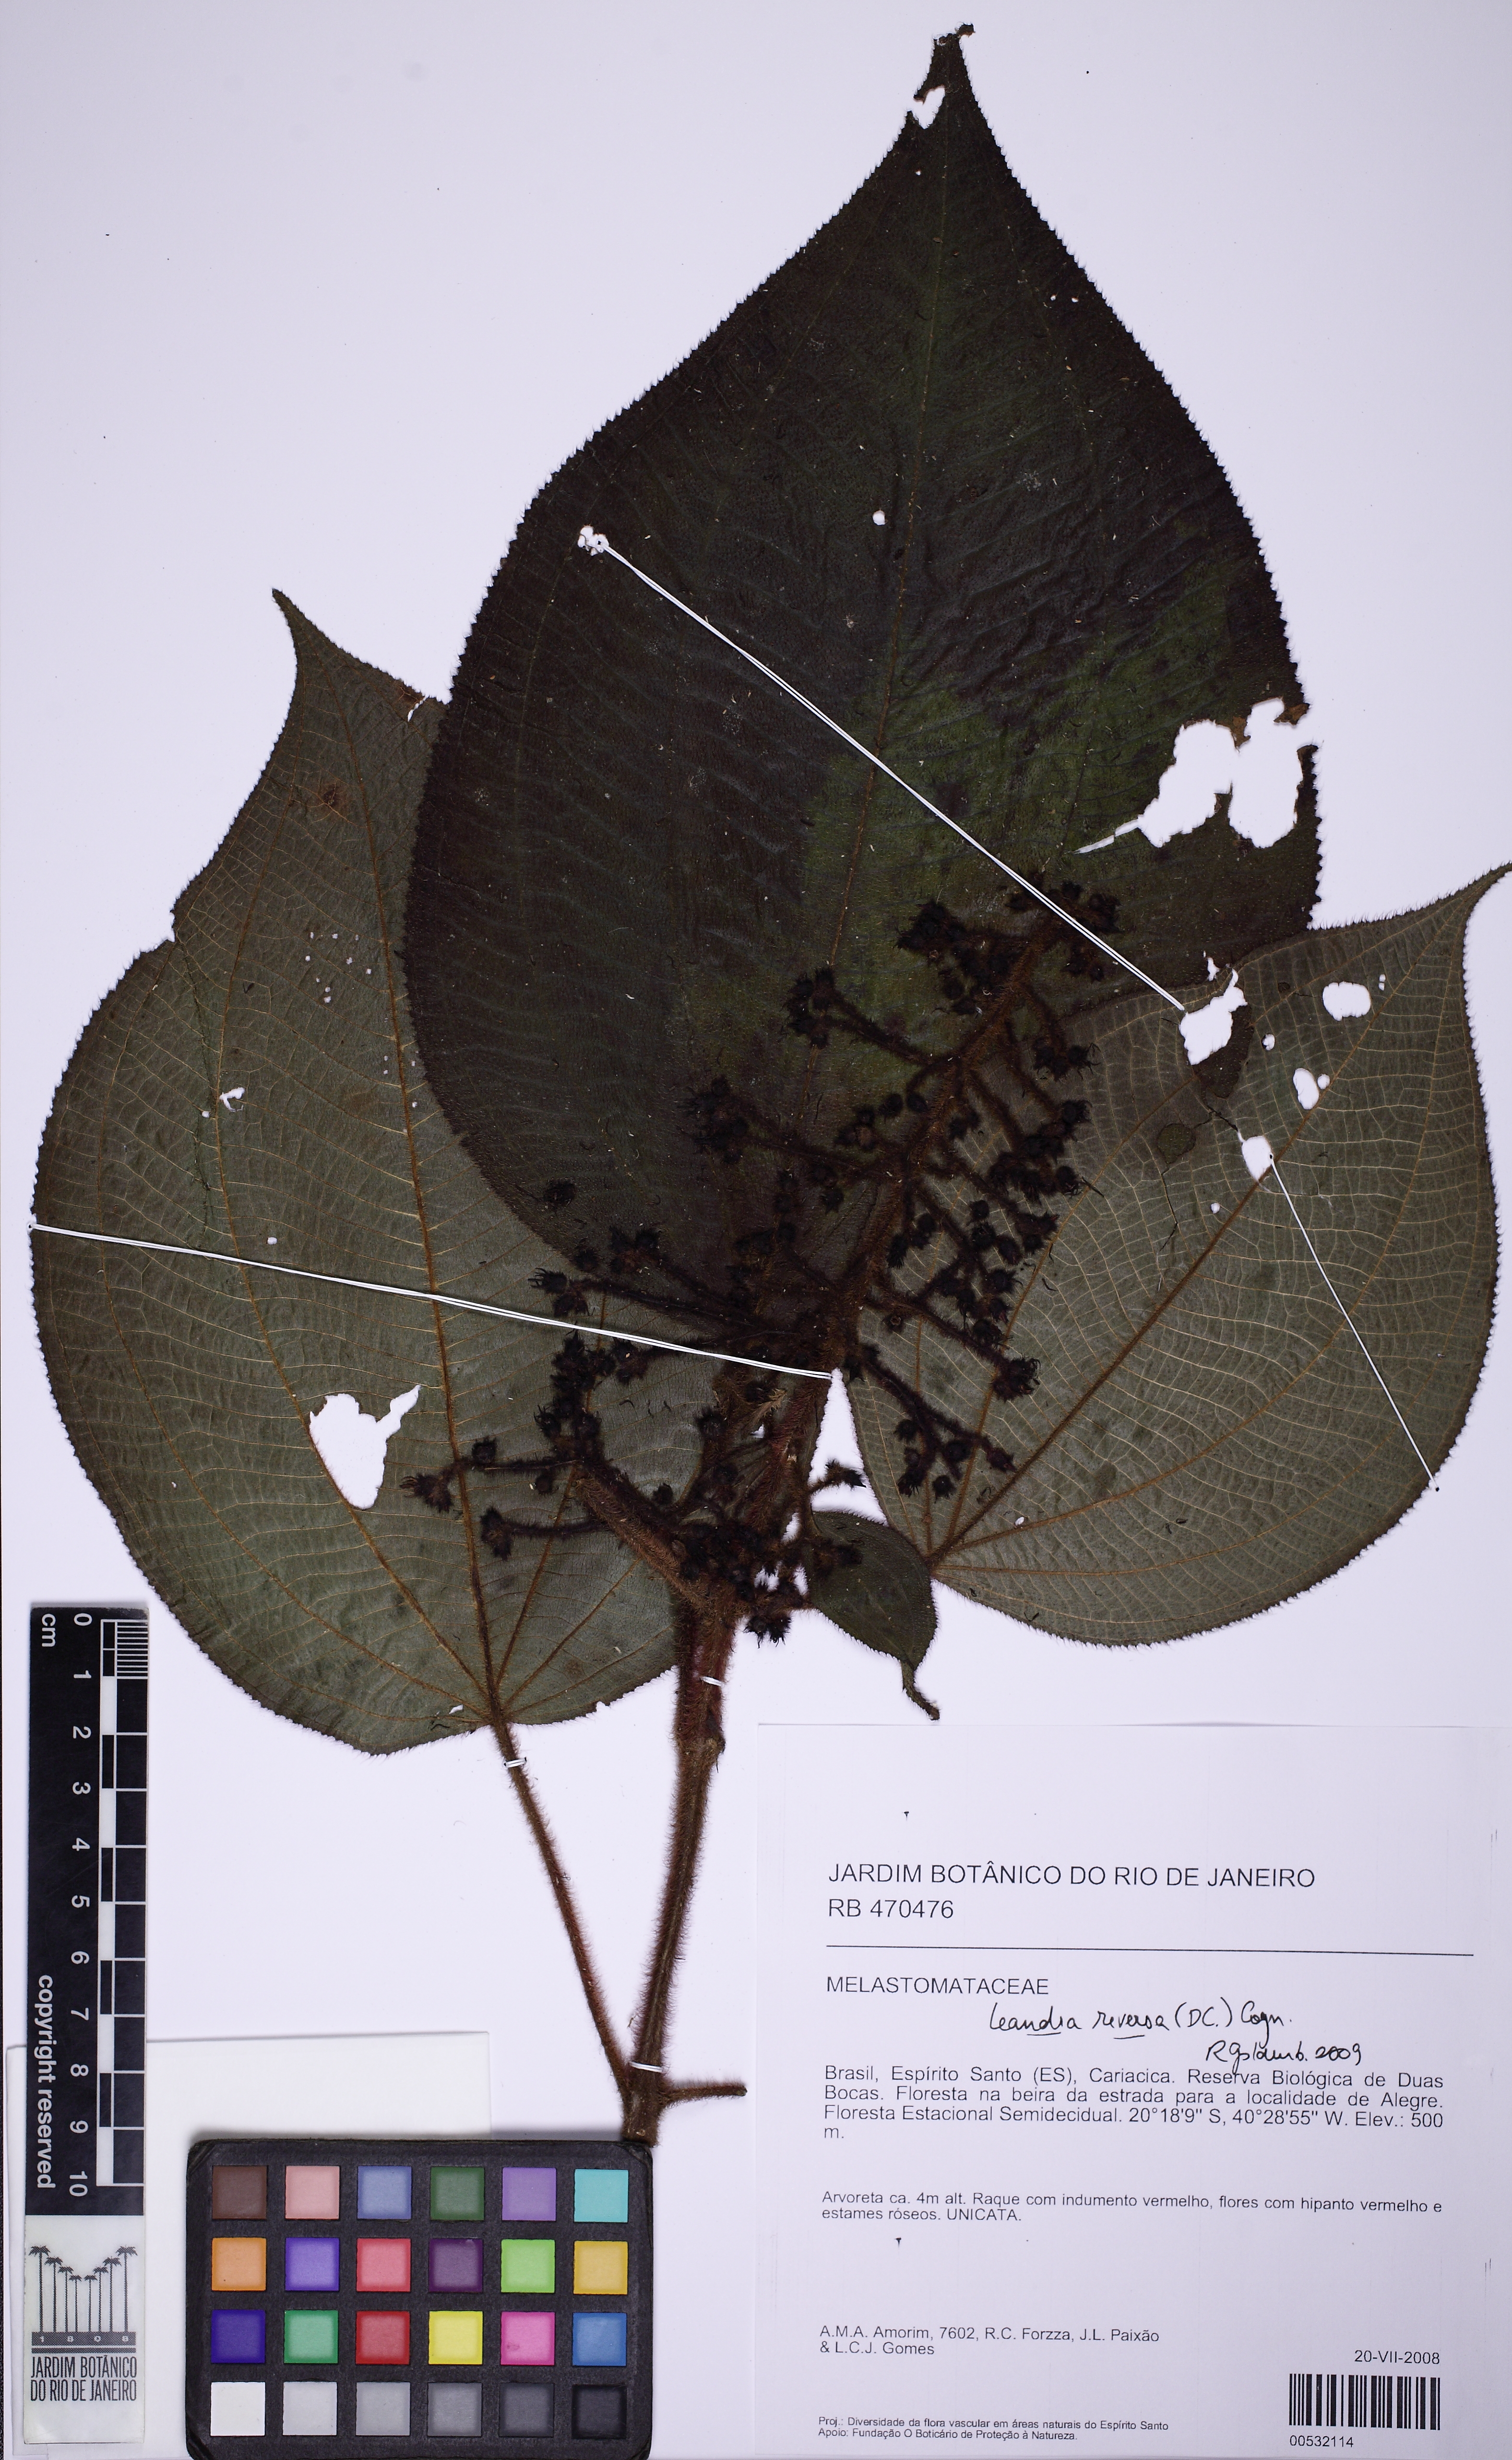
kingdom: Plantae
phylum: Tracheophyta
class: Magnoliopsida
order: Myrtales
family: Melastomataceae
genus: Miconia
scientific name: Miconia reversa
